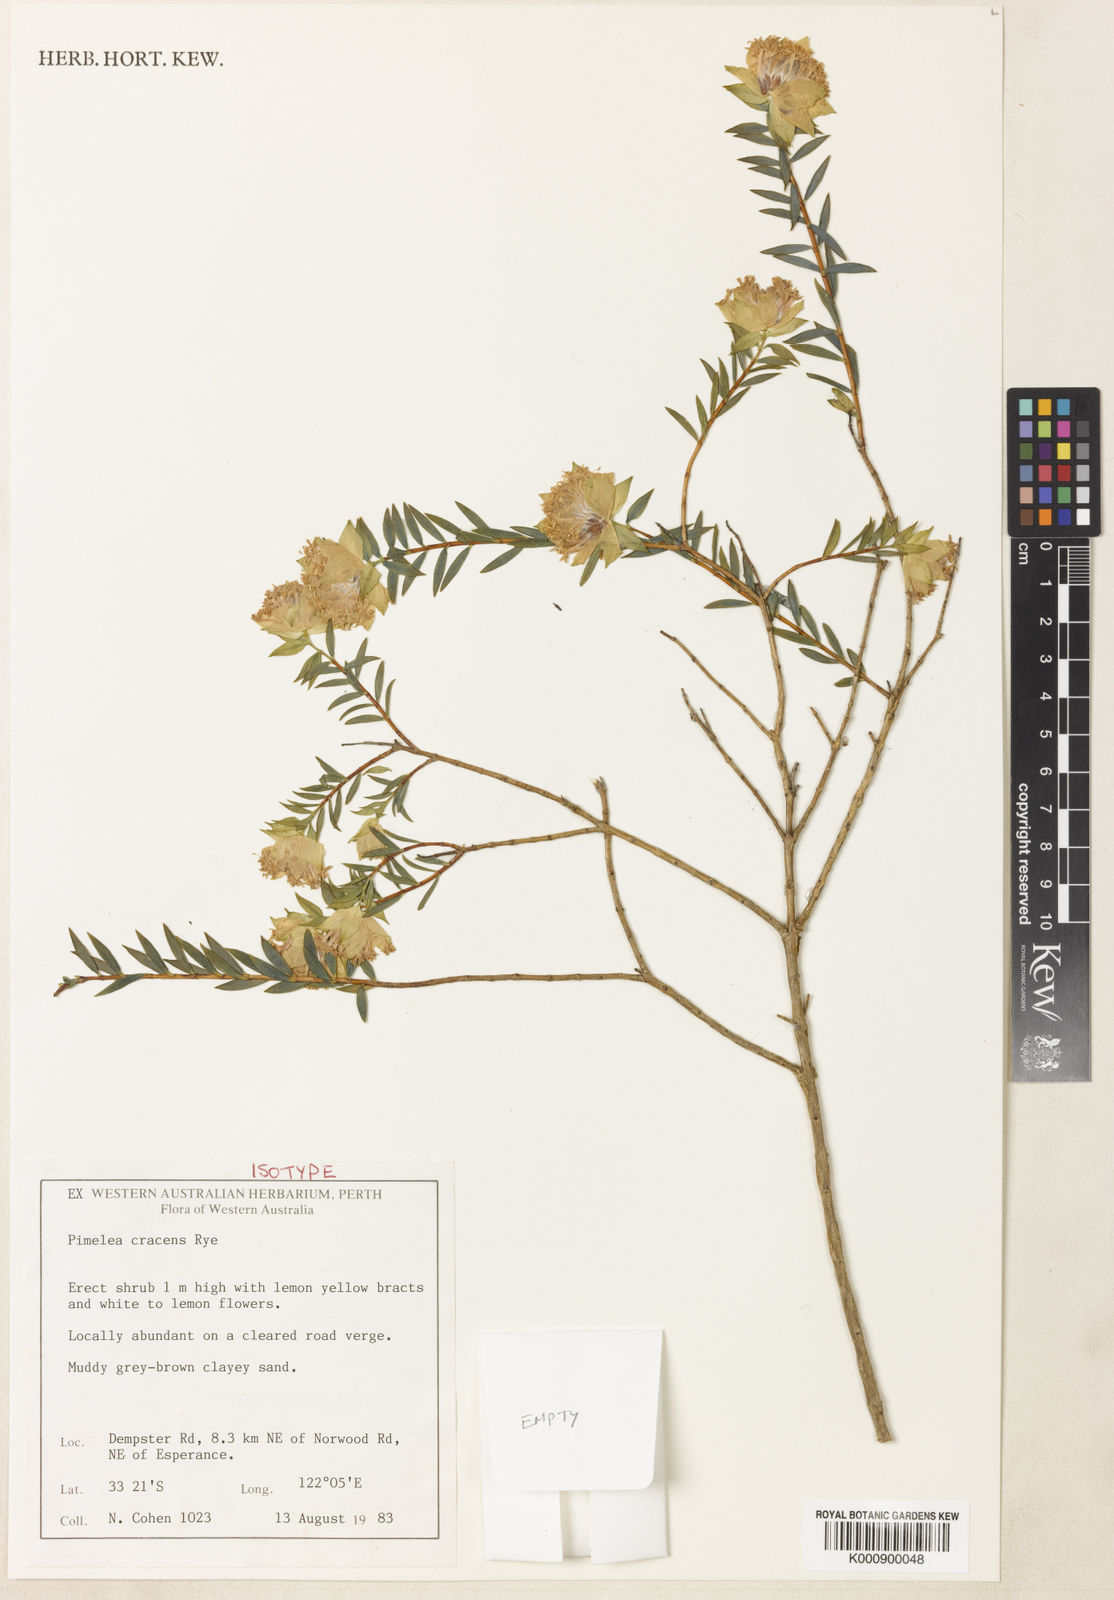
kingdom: Plantae
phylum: Tracheophyta
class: Magnoliopsida
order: Malvales
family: Thymelaeaceae
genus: Pimelea
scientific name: Pimelea cracens
